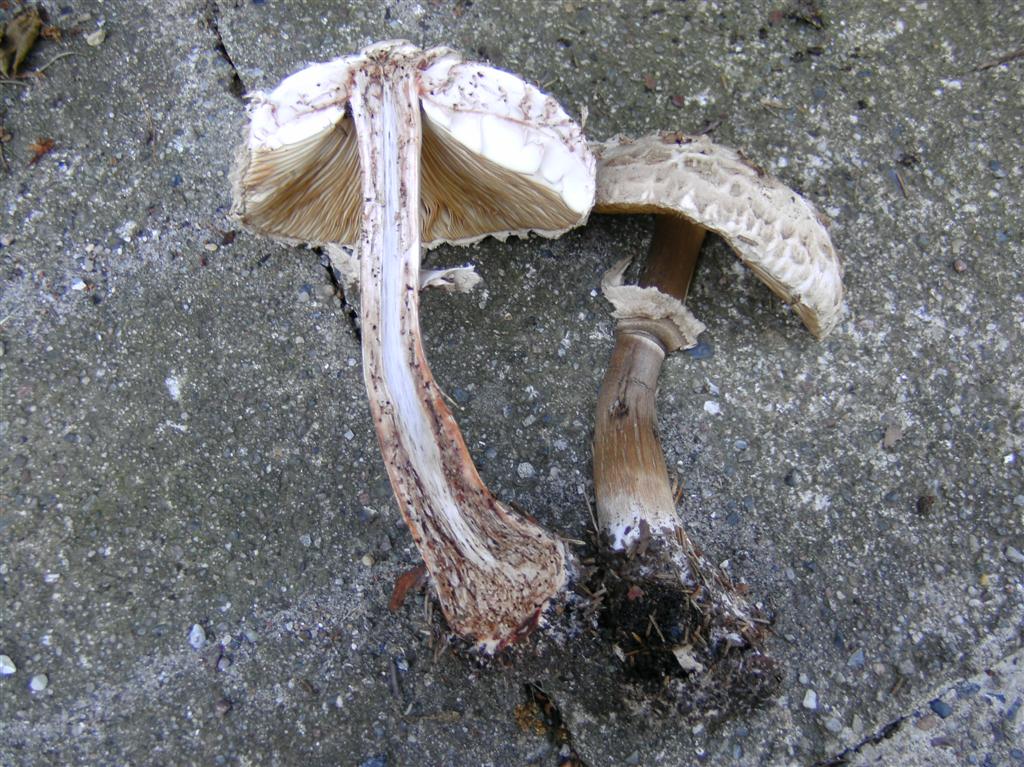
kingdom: Fungi
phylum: Basidiomycota
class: Agaricomycetes
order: Agaricales
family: Agaricaceae
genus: Chlorophyllum
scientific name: Chlorophyllum rhacodes
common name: ægte rabarberhat
